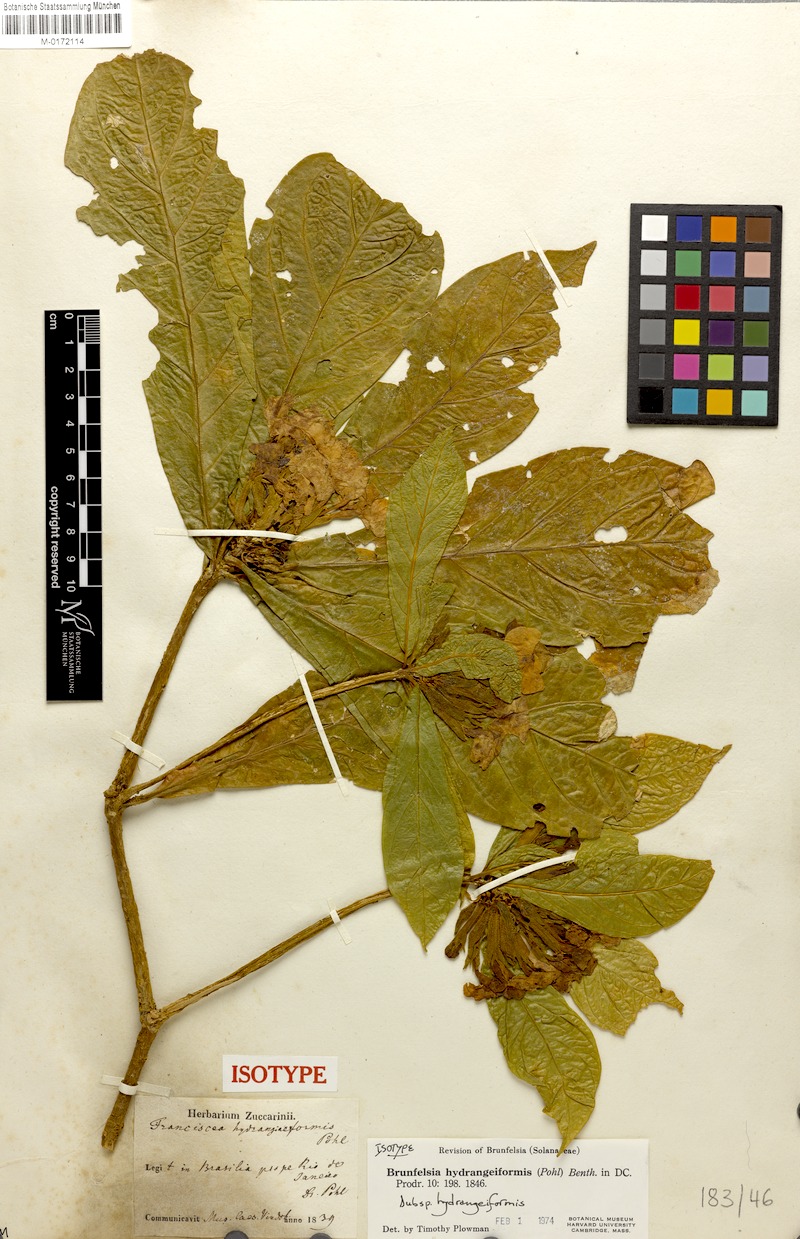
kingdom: Plantae
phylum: Tracheophyta
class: Magnoliopsida
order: Solanales
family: Solanaceae
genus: Brunfelsia
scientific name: Brunfelsia hydrangeiformis
